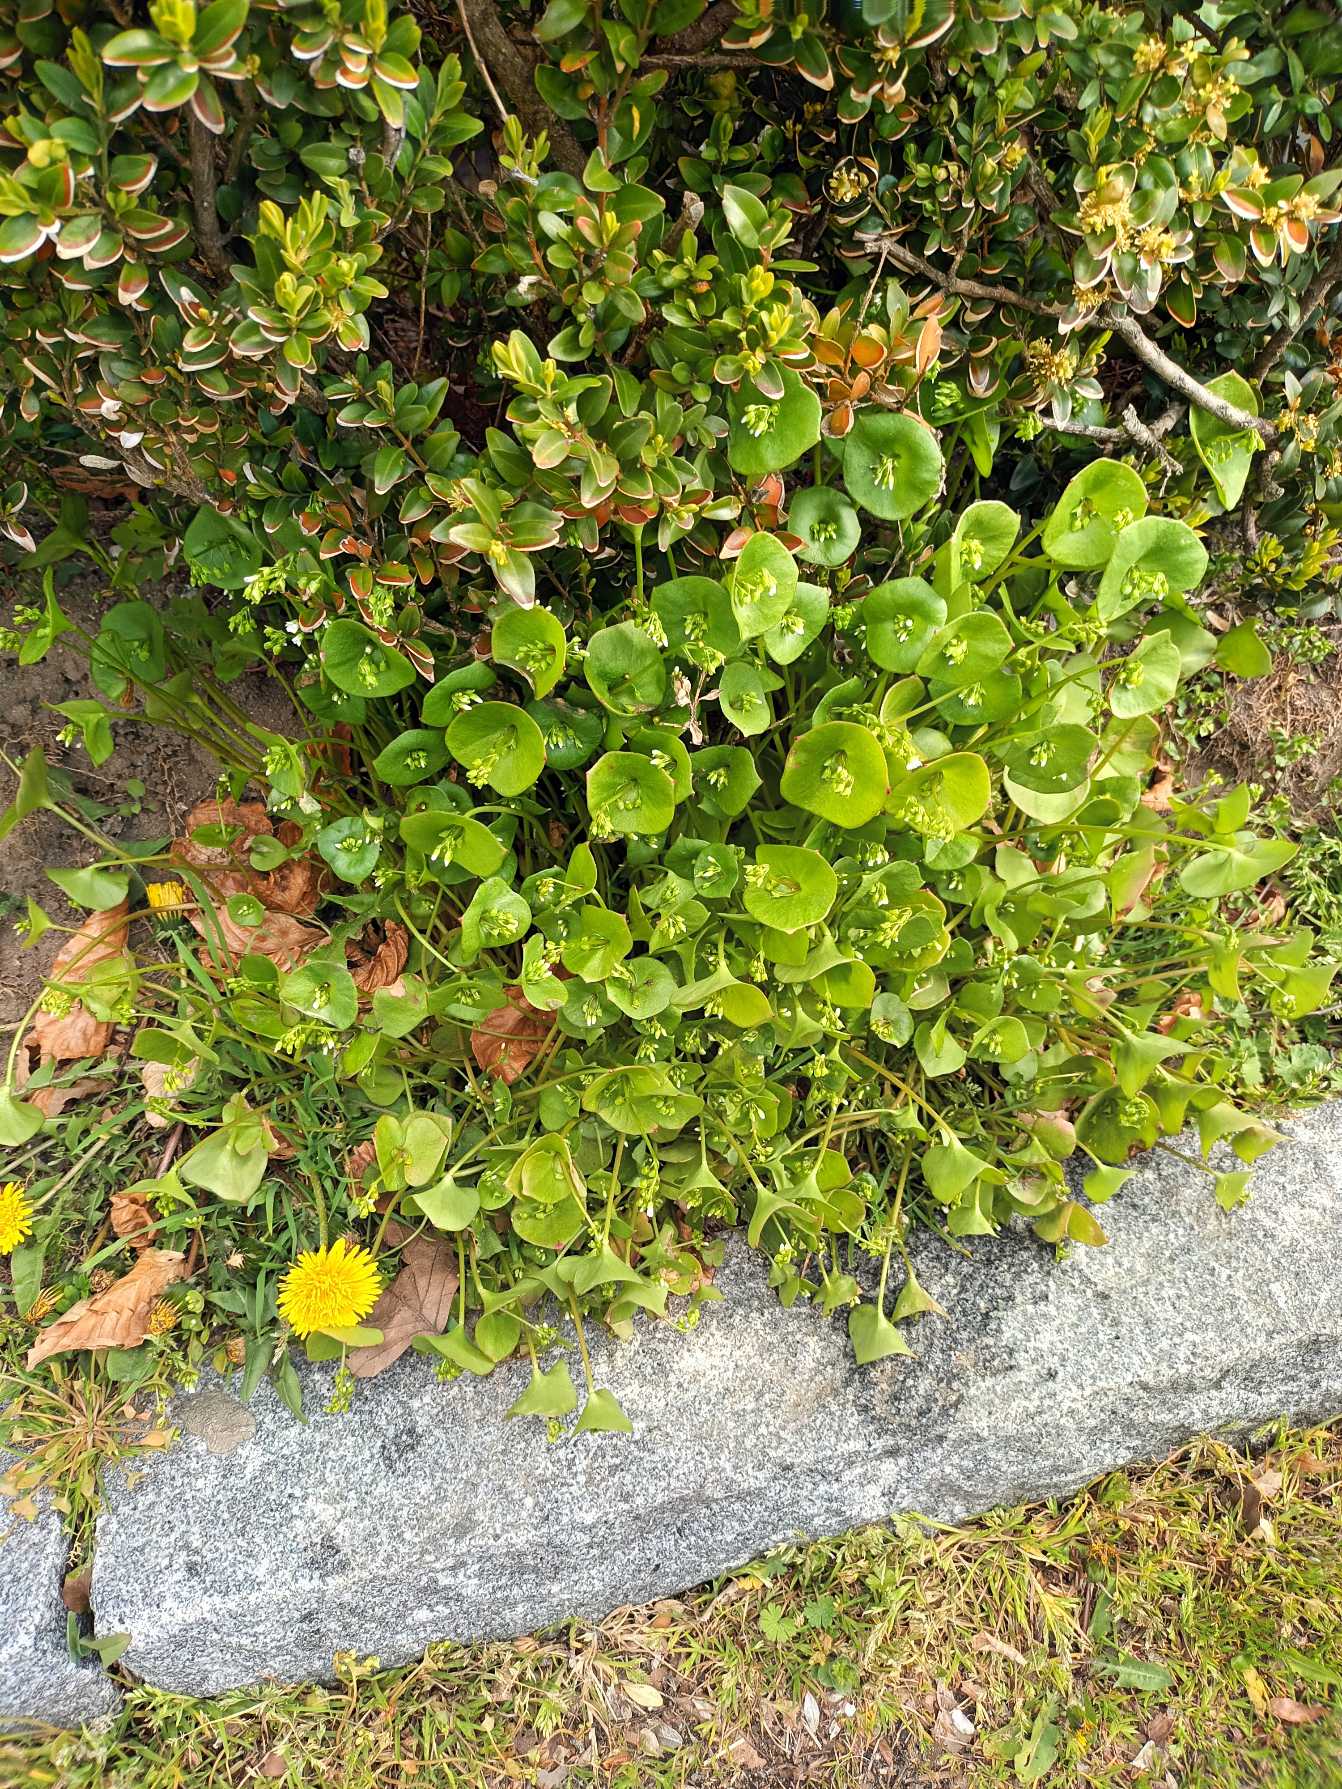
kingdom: Plantae
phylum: Tracheophyta
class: Magnoliopsida
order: Caryophyllales
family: Montiaceae
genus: Claytonia
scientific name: Claytonia perfoliata
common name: Spiselig vinterportulak
